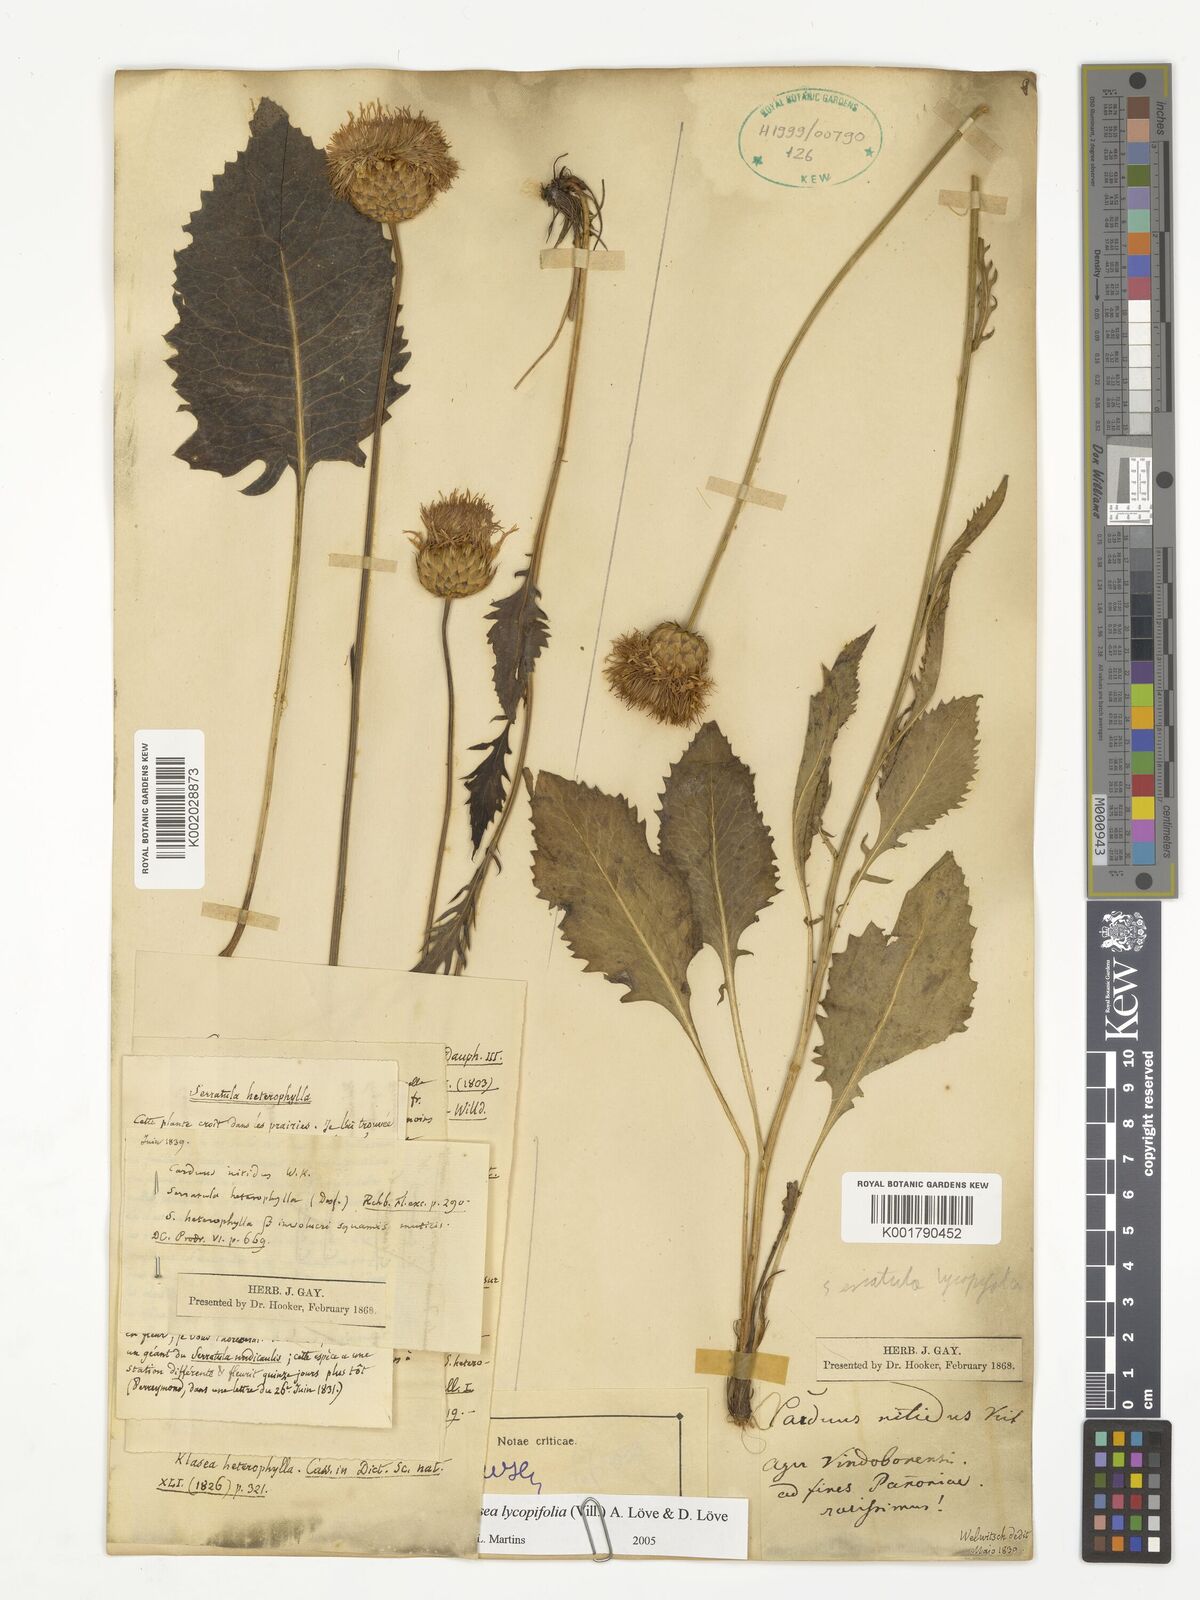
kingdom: Plantae
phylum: Tracheophyta
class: Magnoliopsida
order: Caryophyllales
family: Cactaceae
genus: Soehrensia
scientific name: Soehrensia candicans
